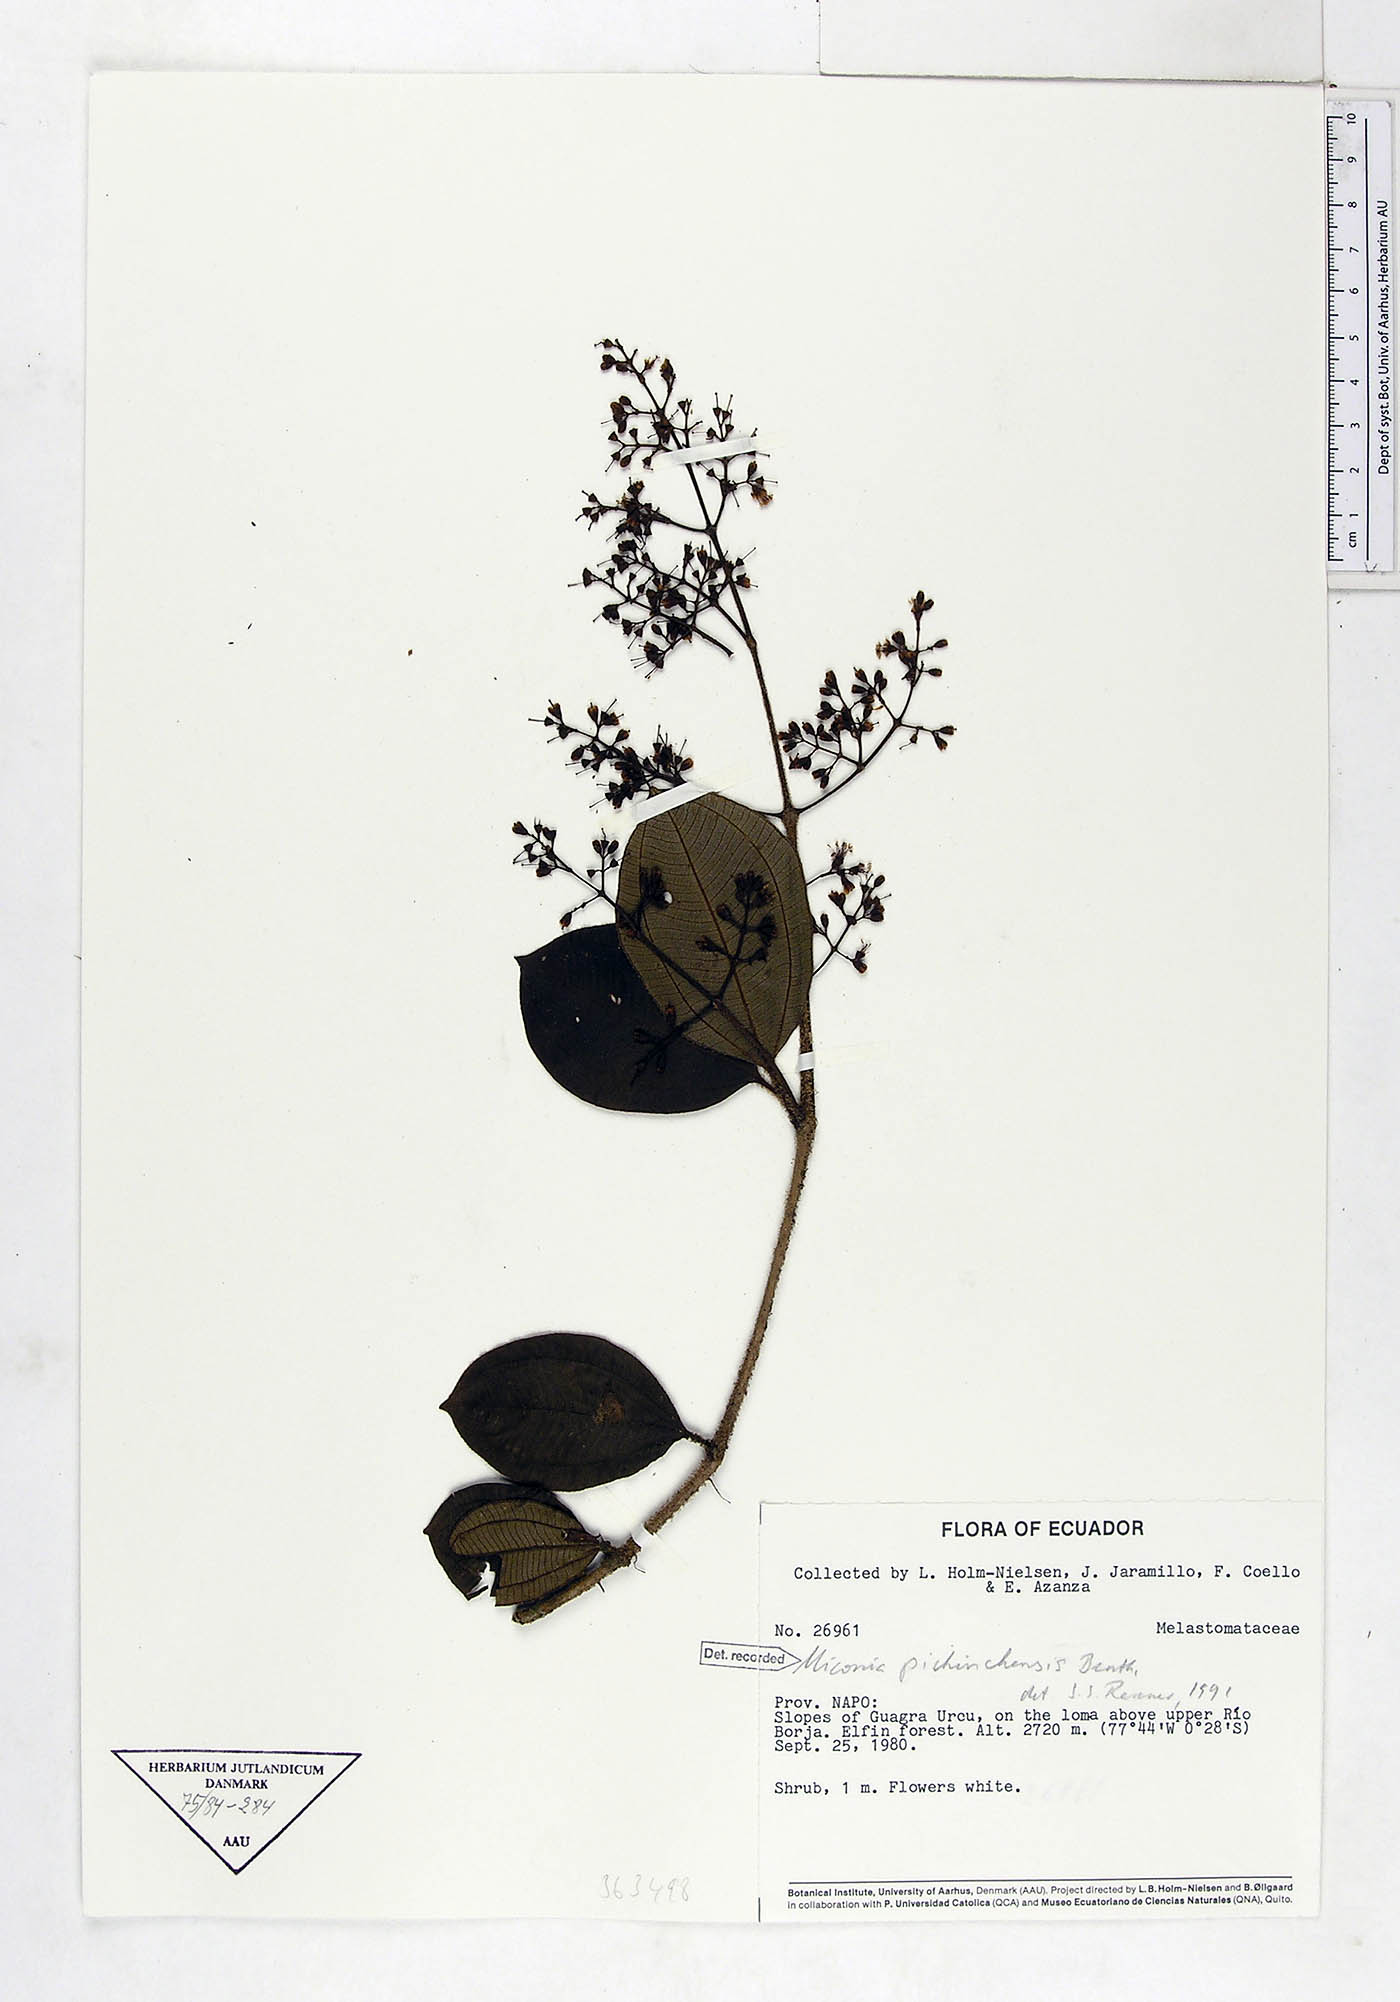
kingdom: Plantae
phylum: Tracheophyta
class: Magnoliopsida
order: Myrtales
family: Melastomataceae
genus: Miconia
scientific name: Miconia pichinchensis
